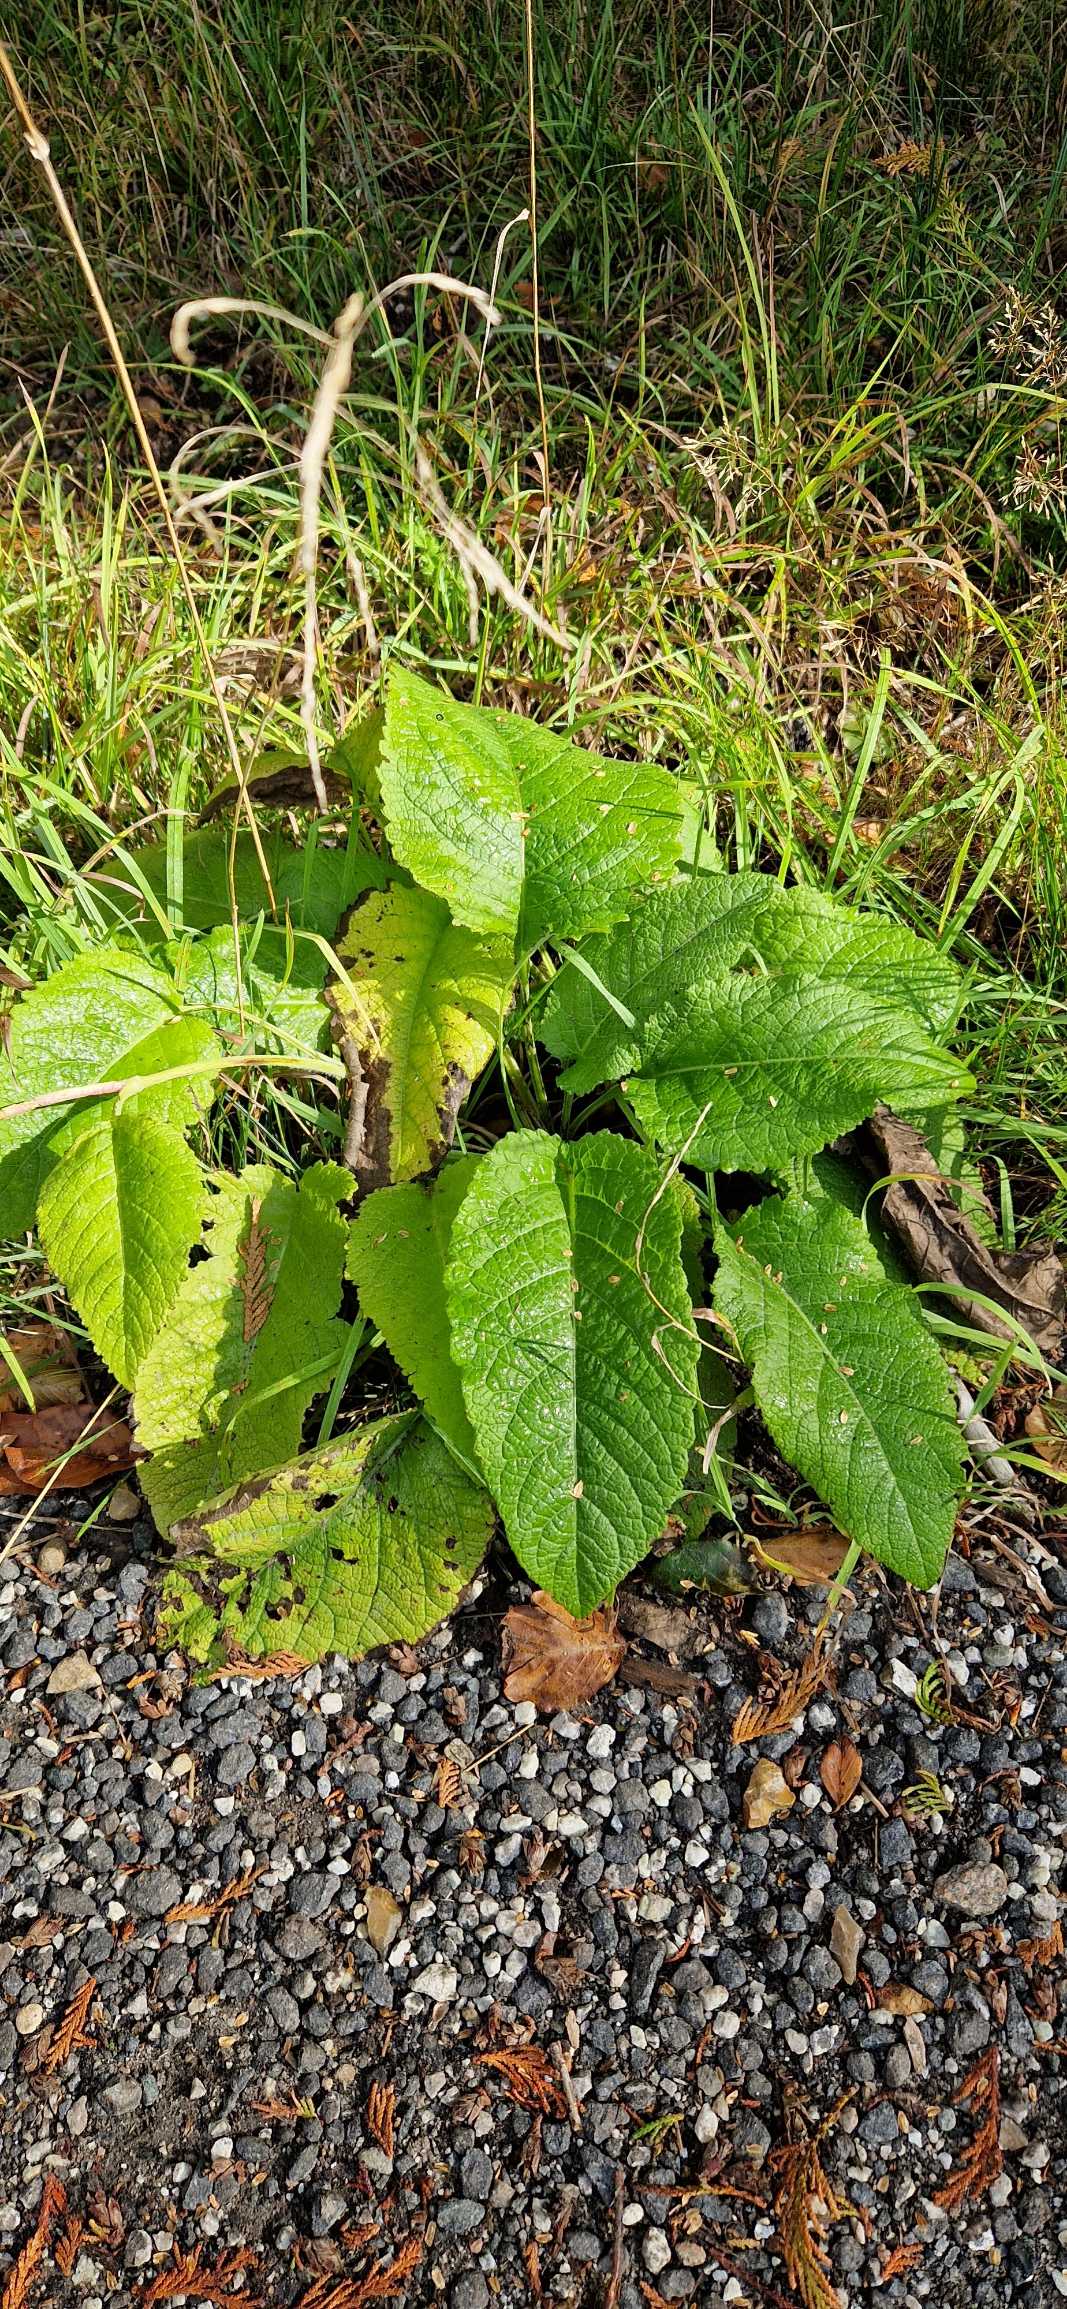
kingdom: Plantae
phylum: Tracheophyta
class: Magnoliopsida
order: Asterales
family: Asteraceae
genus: Telekia
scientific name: Telekia speciosa
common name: Tusindstråle
